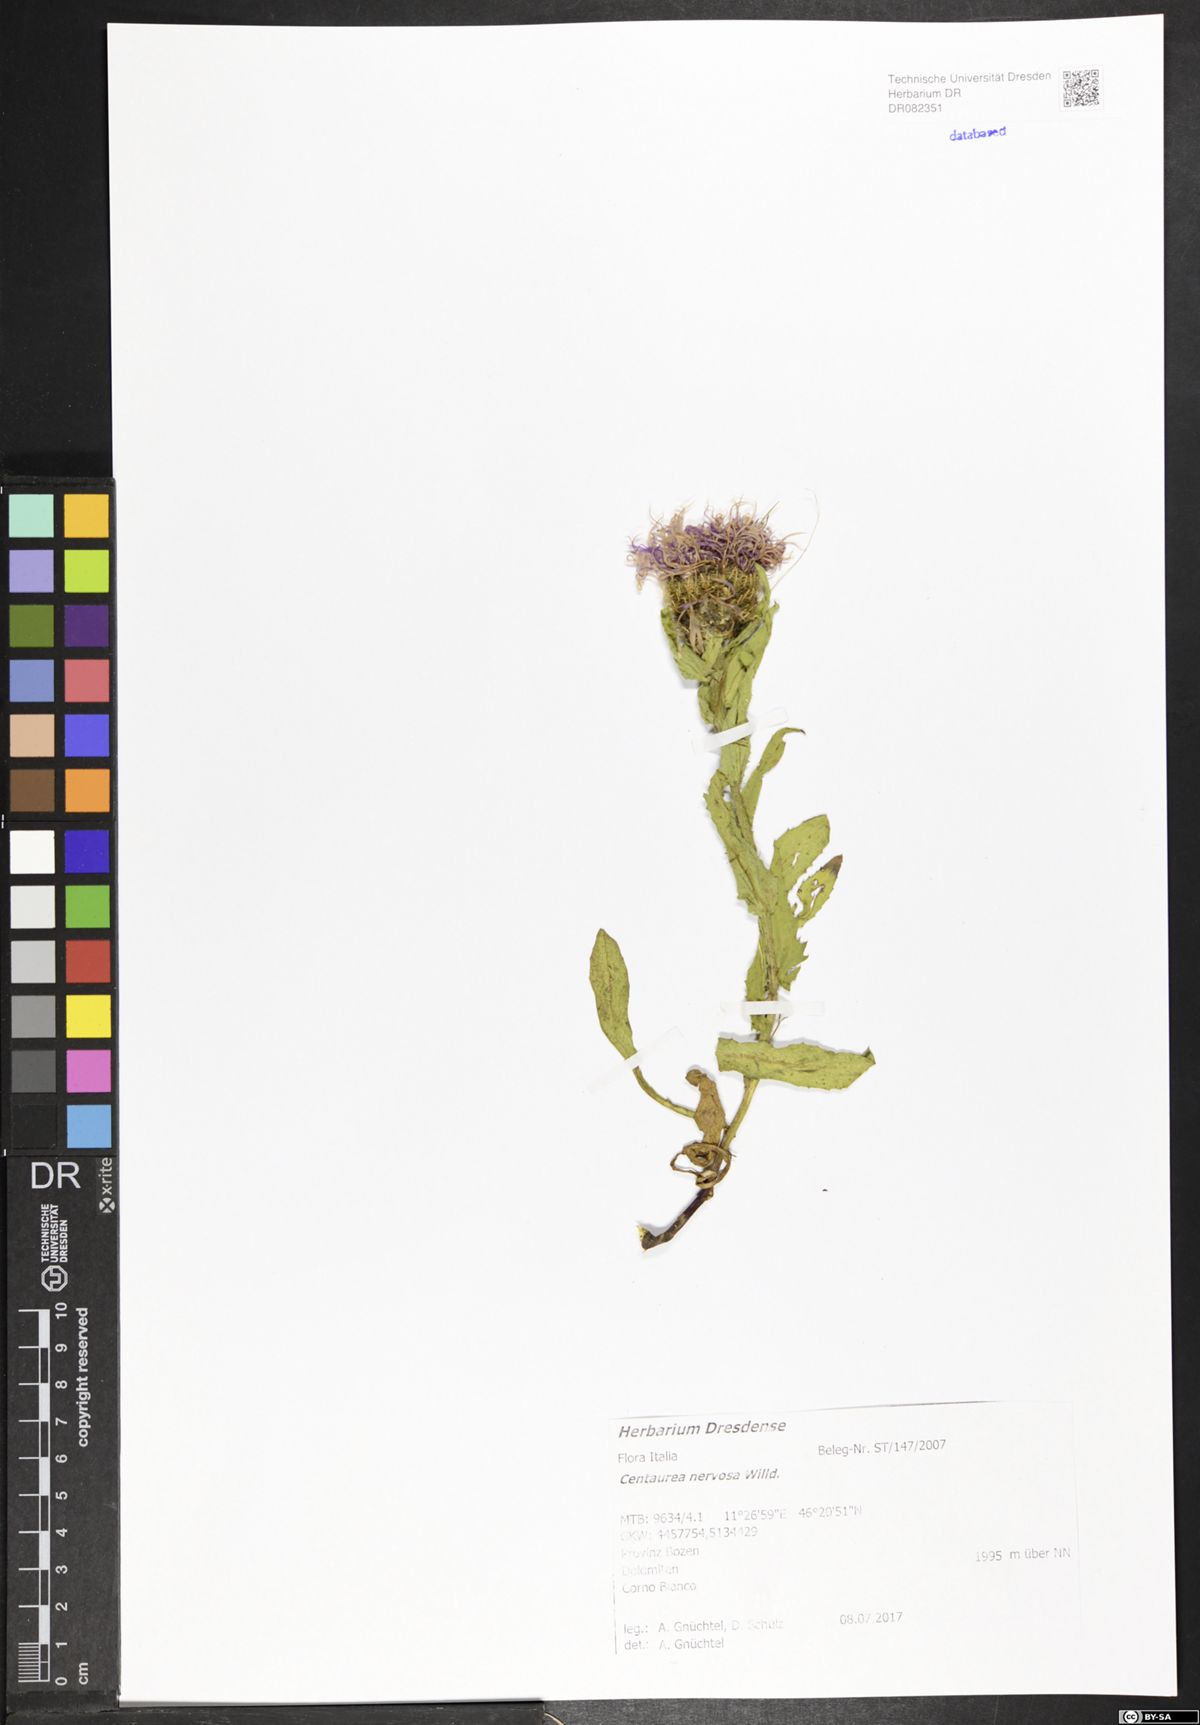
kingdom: Plantae
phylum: Tracheophyta
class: Magnoliopsida
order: Asterales
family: Asteraceae
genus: Centaurea
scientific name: Centaurea nervosa
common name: Singleflower knapweed
